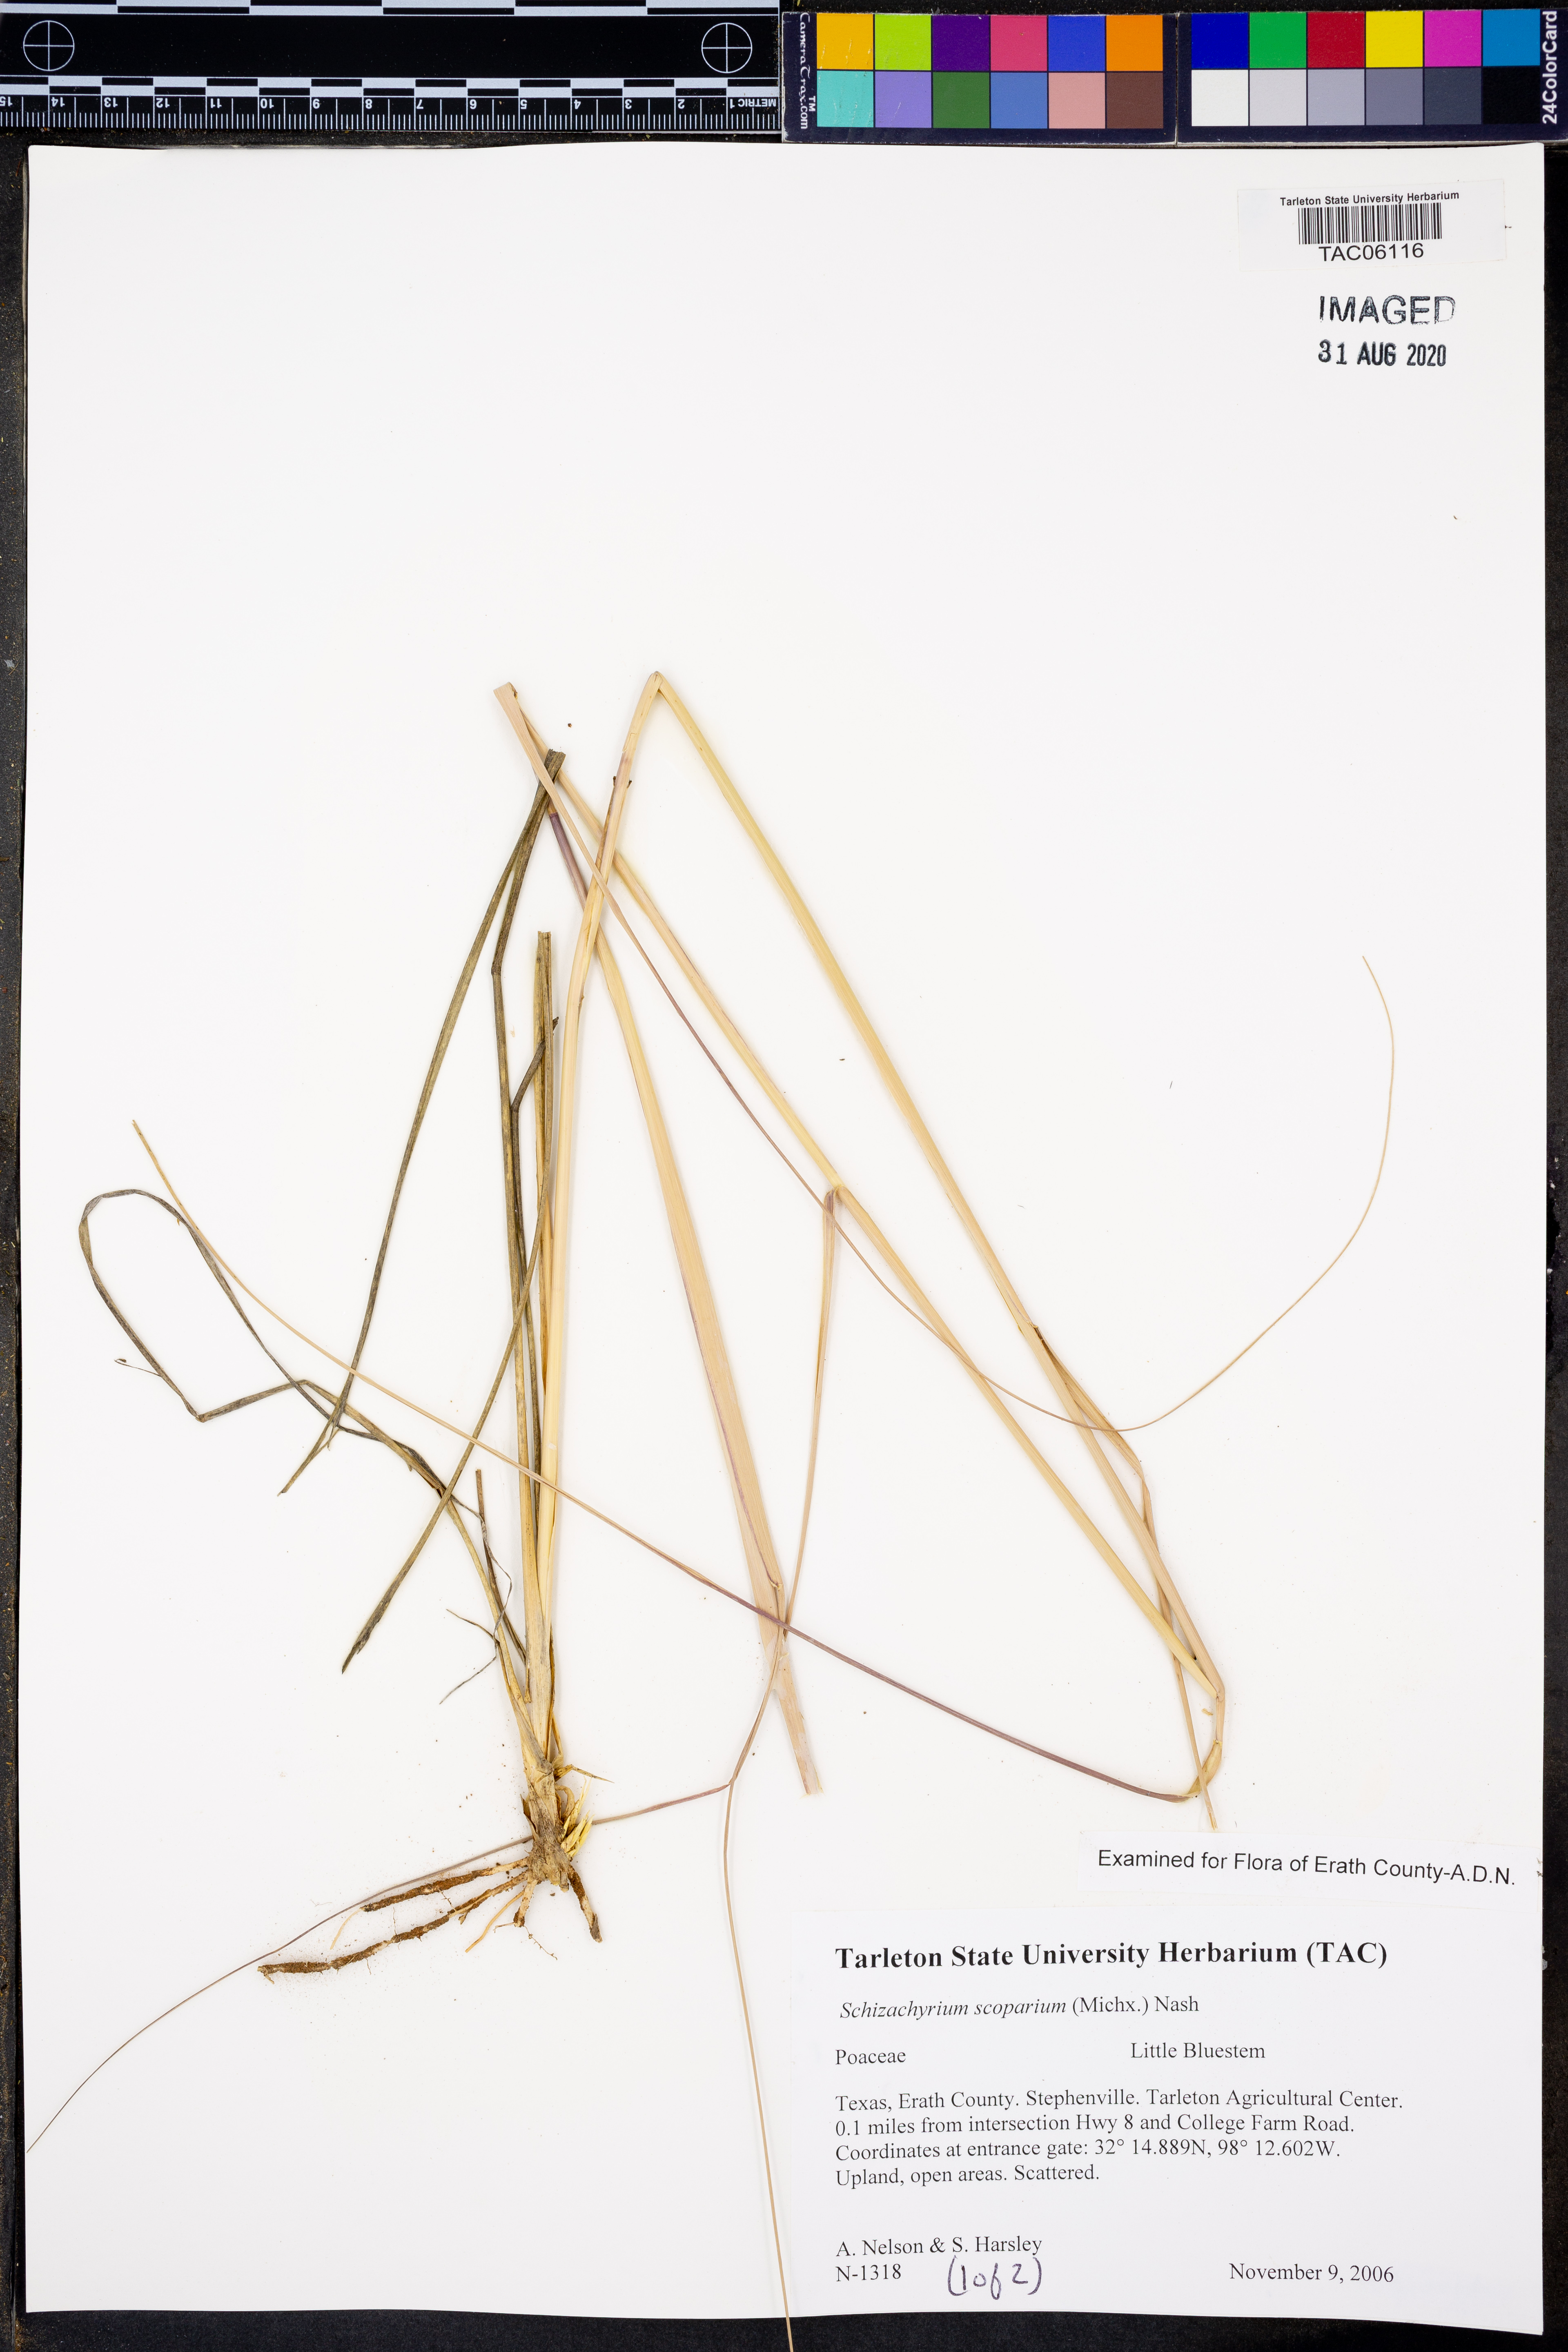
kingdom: Plantae
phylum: Tracheophyta
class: Liliopsida
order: Poales
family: Poaceae
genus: Schizachyrium
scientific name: Schizachyrium scoparium
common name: Little bluestem
